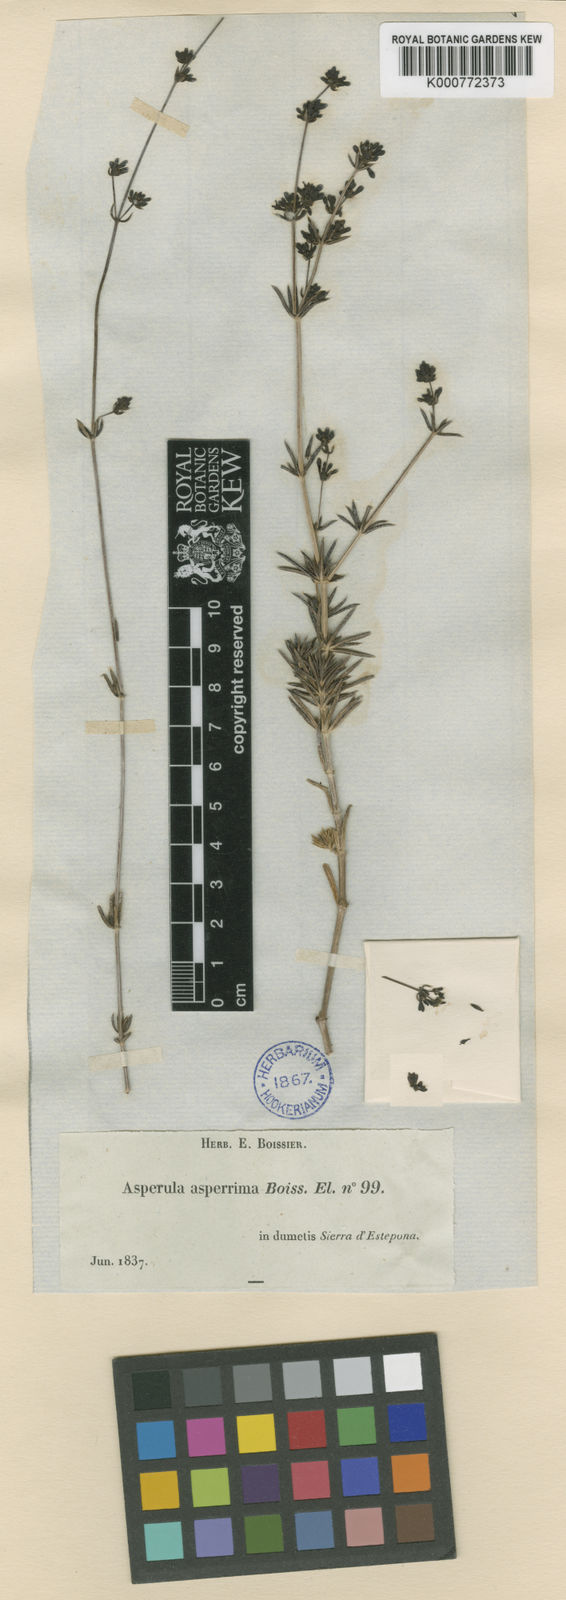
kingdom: Plantae
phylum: Tracheophyta
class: Magnoliopsida
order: Gentianales
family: Rubiaceae
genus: Galium
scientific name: Galium
